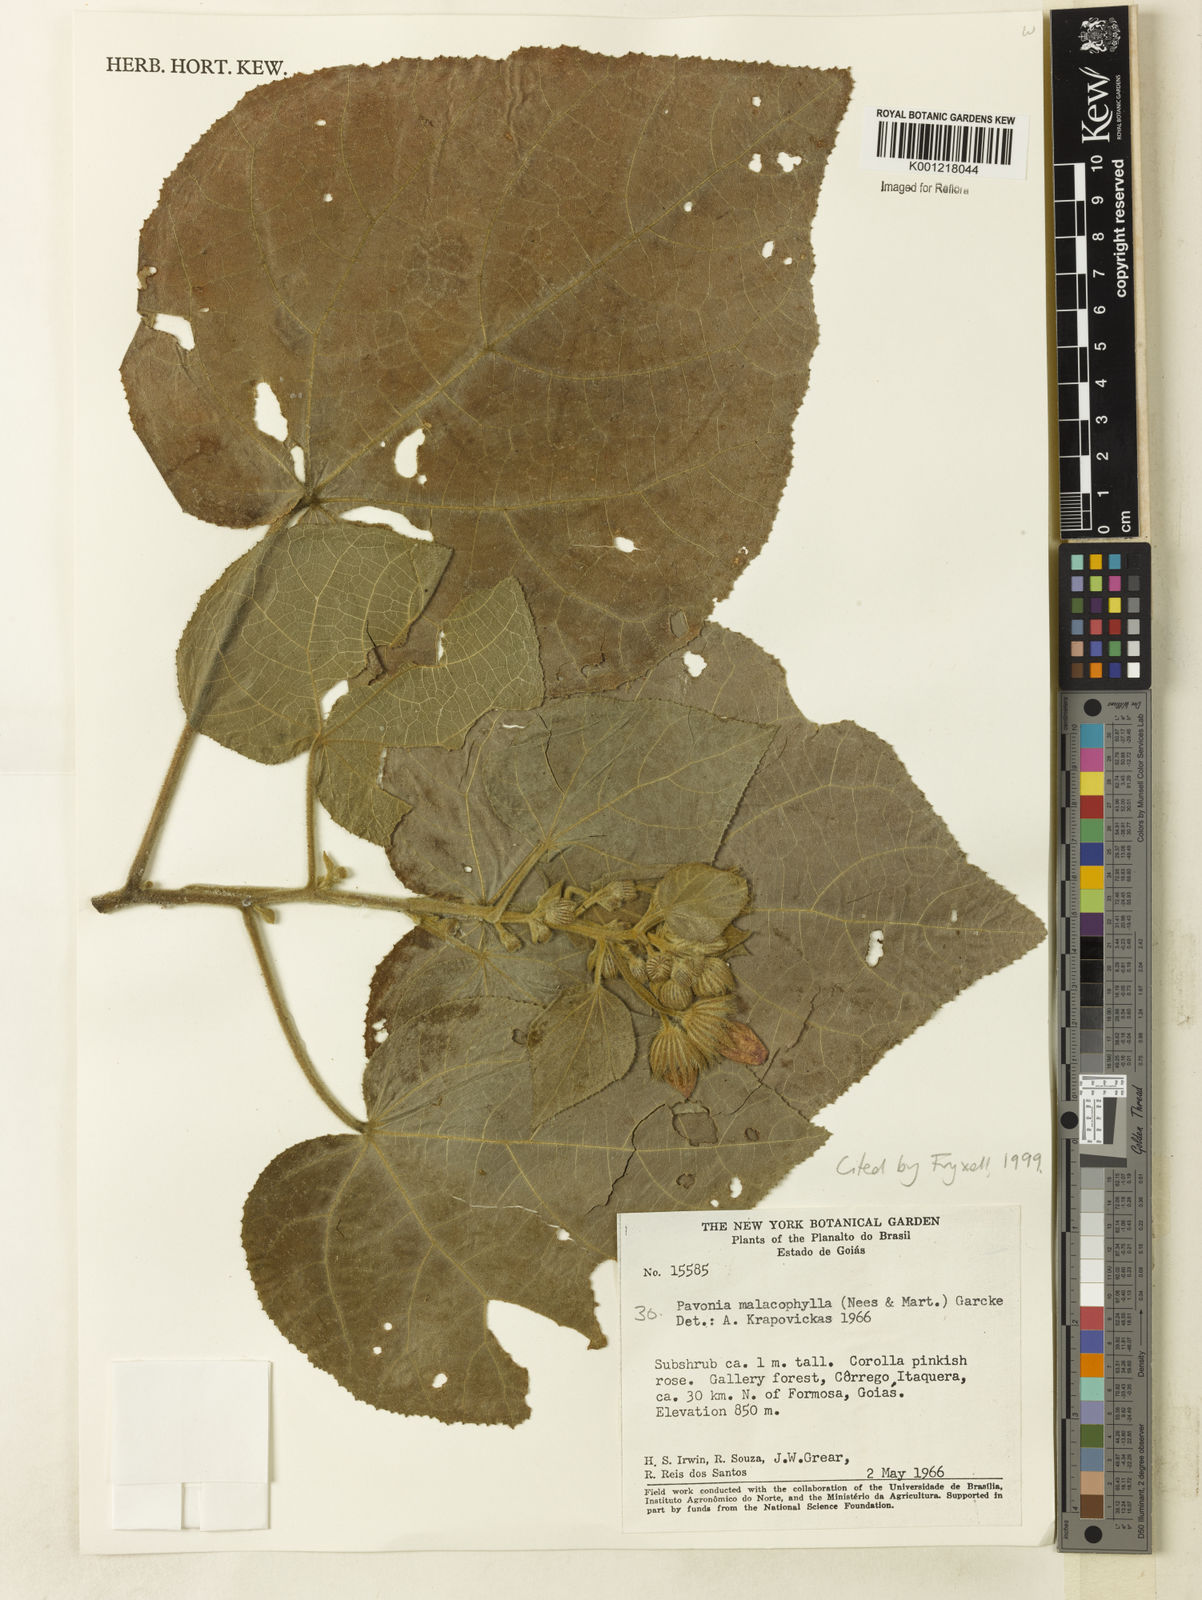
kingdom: Plantae
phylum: Tracheophyta
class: Magnoliopsida
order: Malvales
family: Malvaceae
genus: Pavonia
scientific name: Pavonia malacophylla
